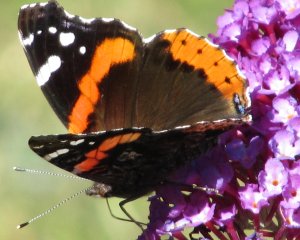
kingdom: Animalia
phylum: Arthropoda
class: Insecta
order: Lepidoptera
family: Nymphalidae
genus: Vanessa
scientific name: Vanessa atalanta
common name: Red Admiral
